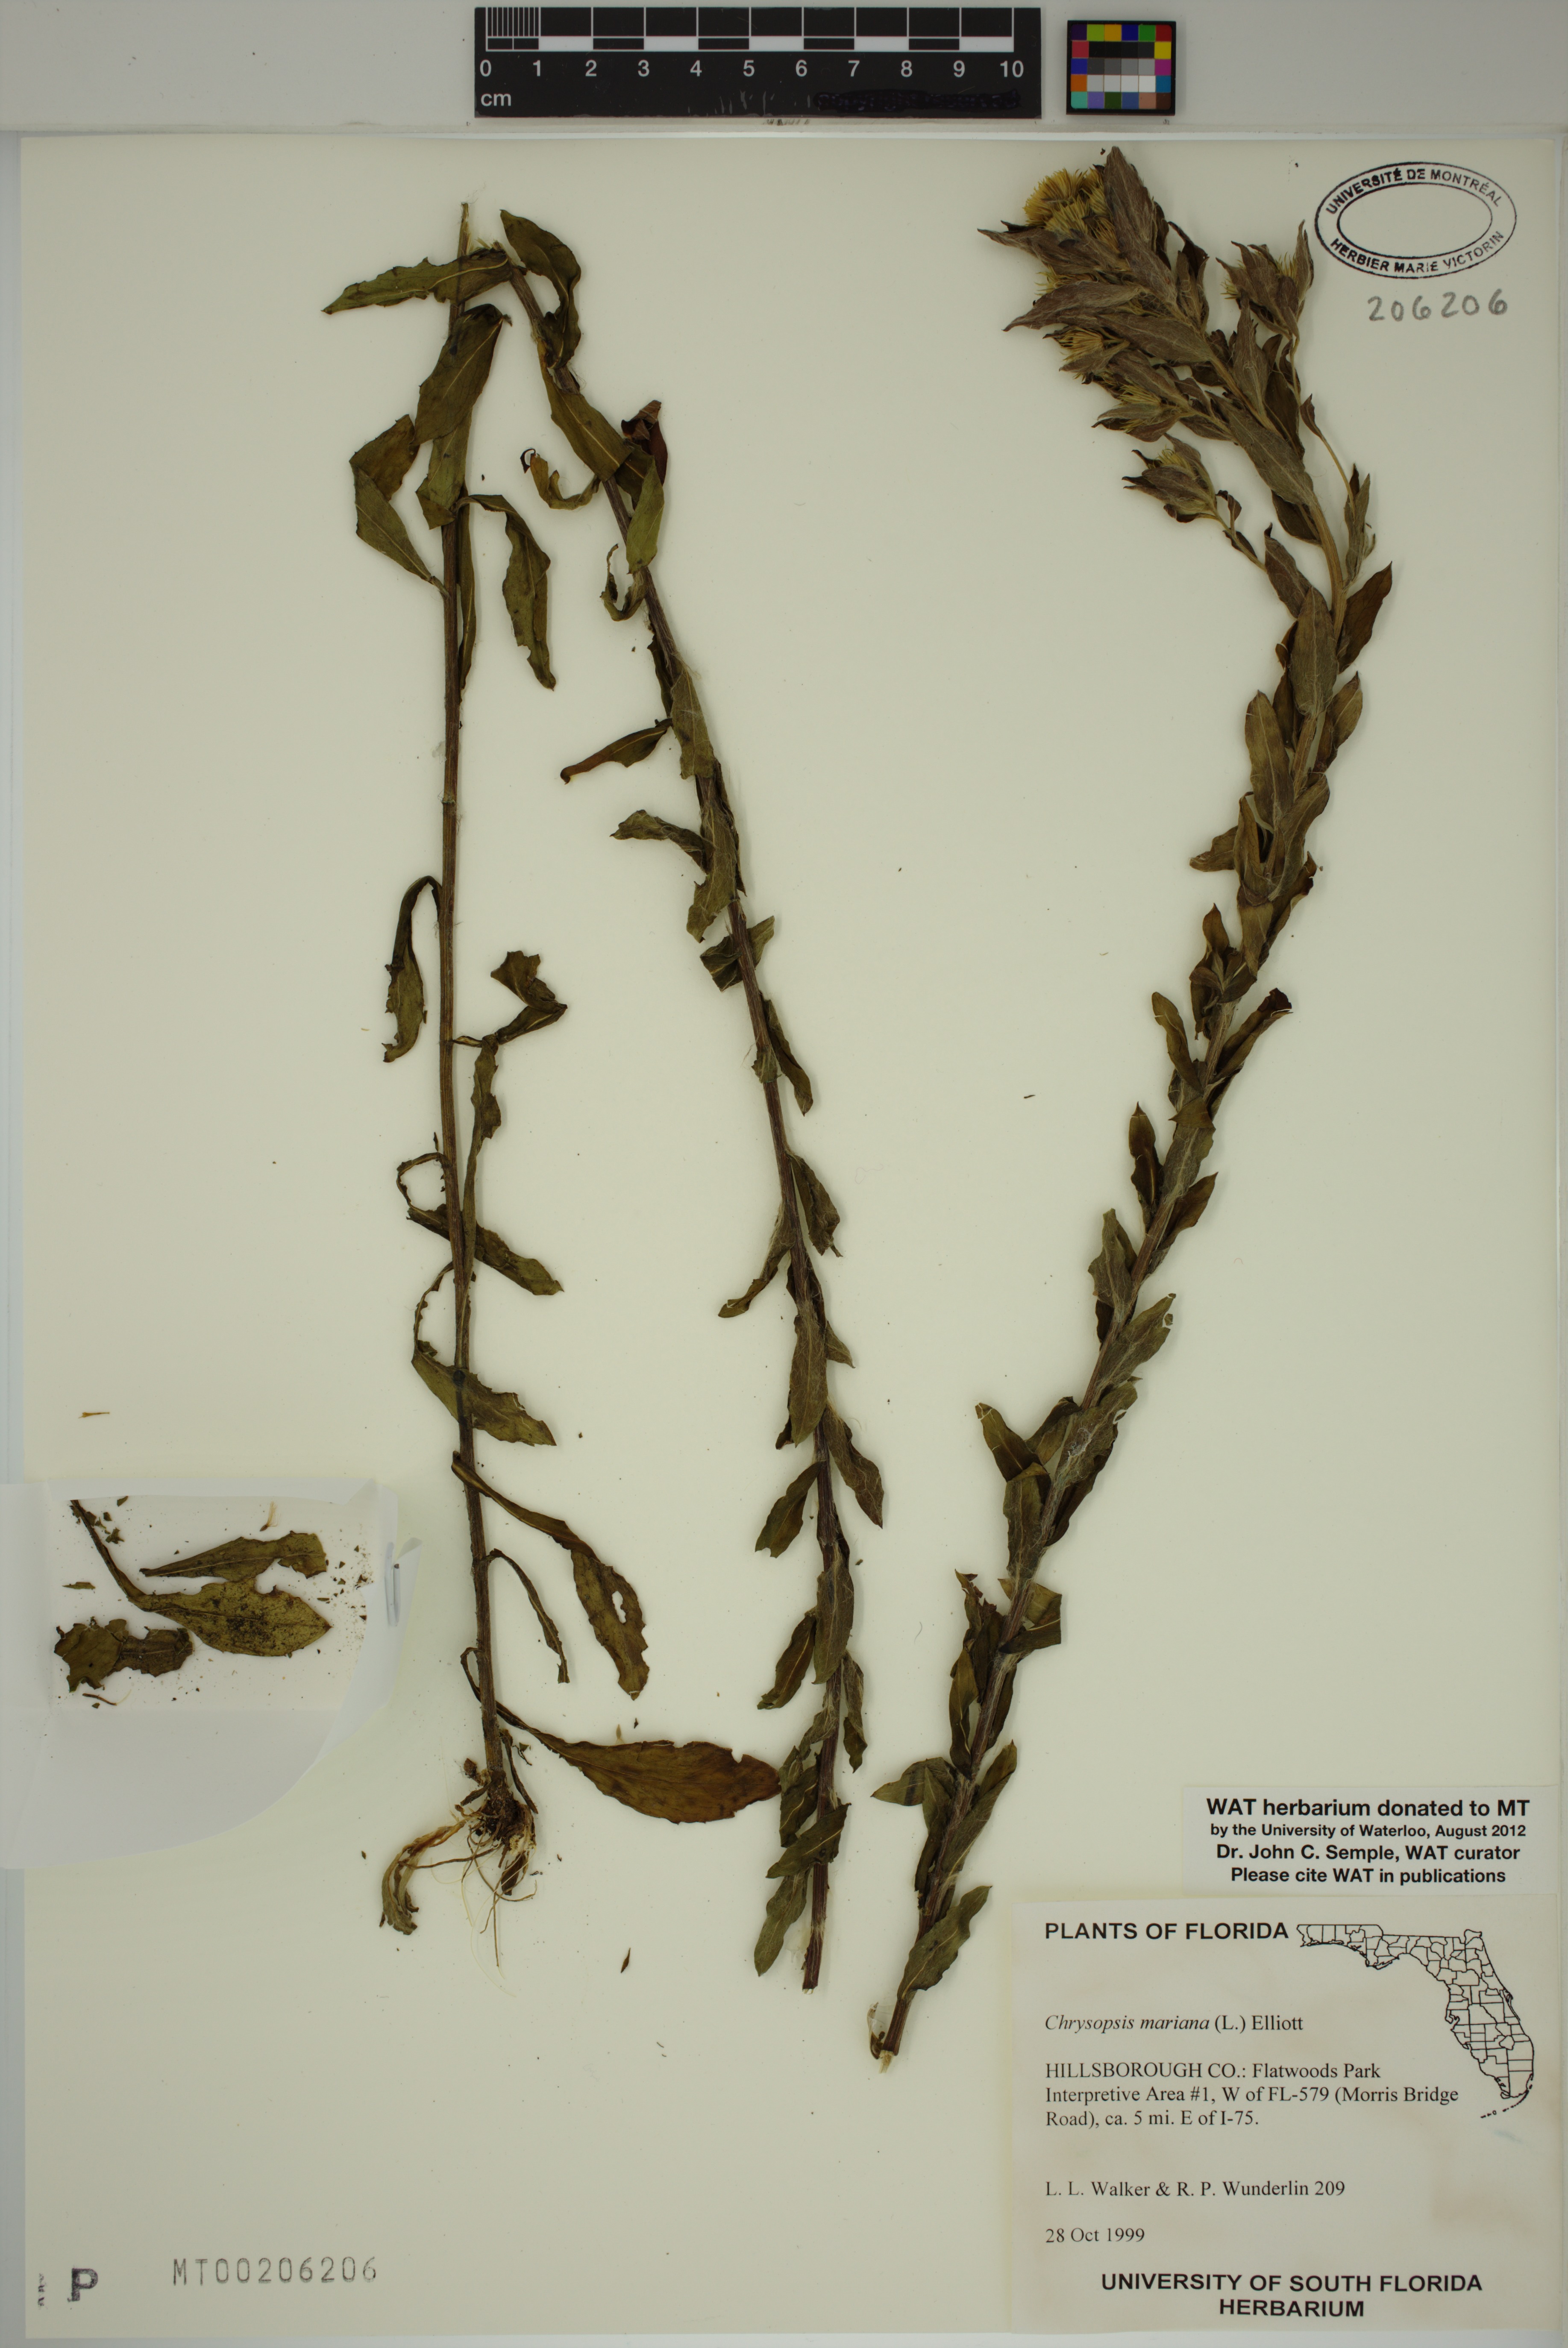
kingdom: Plantae
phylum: Tracheophyta
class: Magnoliopsida
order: Asterales
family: Asteraceae
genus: Chrysopsis
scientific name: Chrysopsis mariana
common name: Maryland golden-aster
